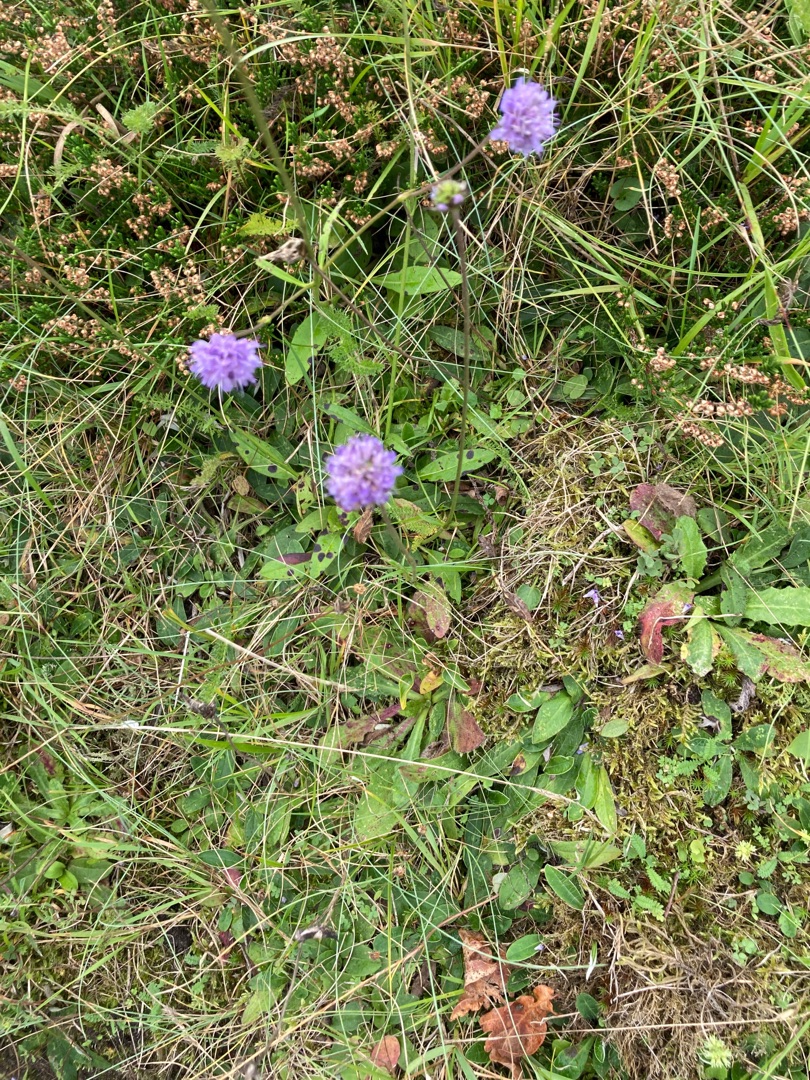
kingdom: Plantae
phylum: Tracheophyta
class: Magnoliopsida
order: Dipsacales
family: Caprifoliaceae
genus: Succisa
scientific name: Succisa pratensis
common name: Djævelsbid
